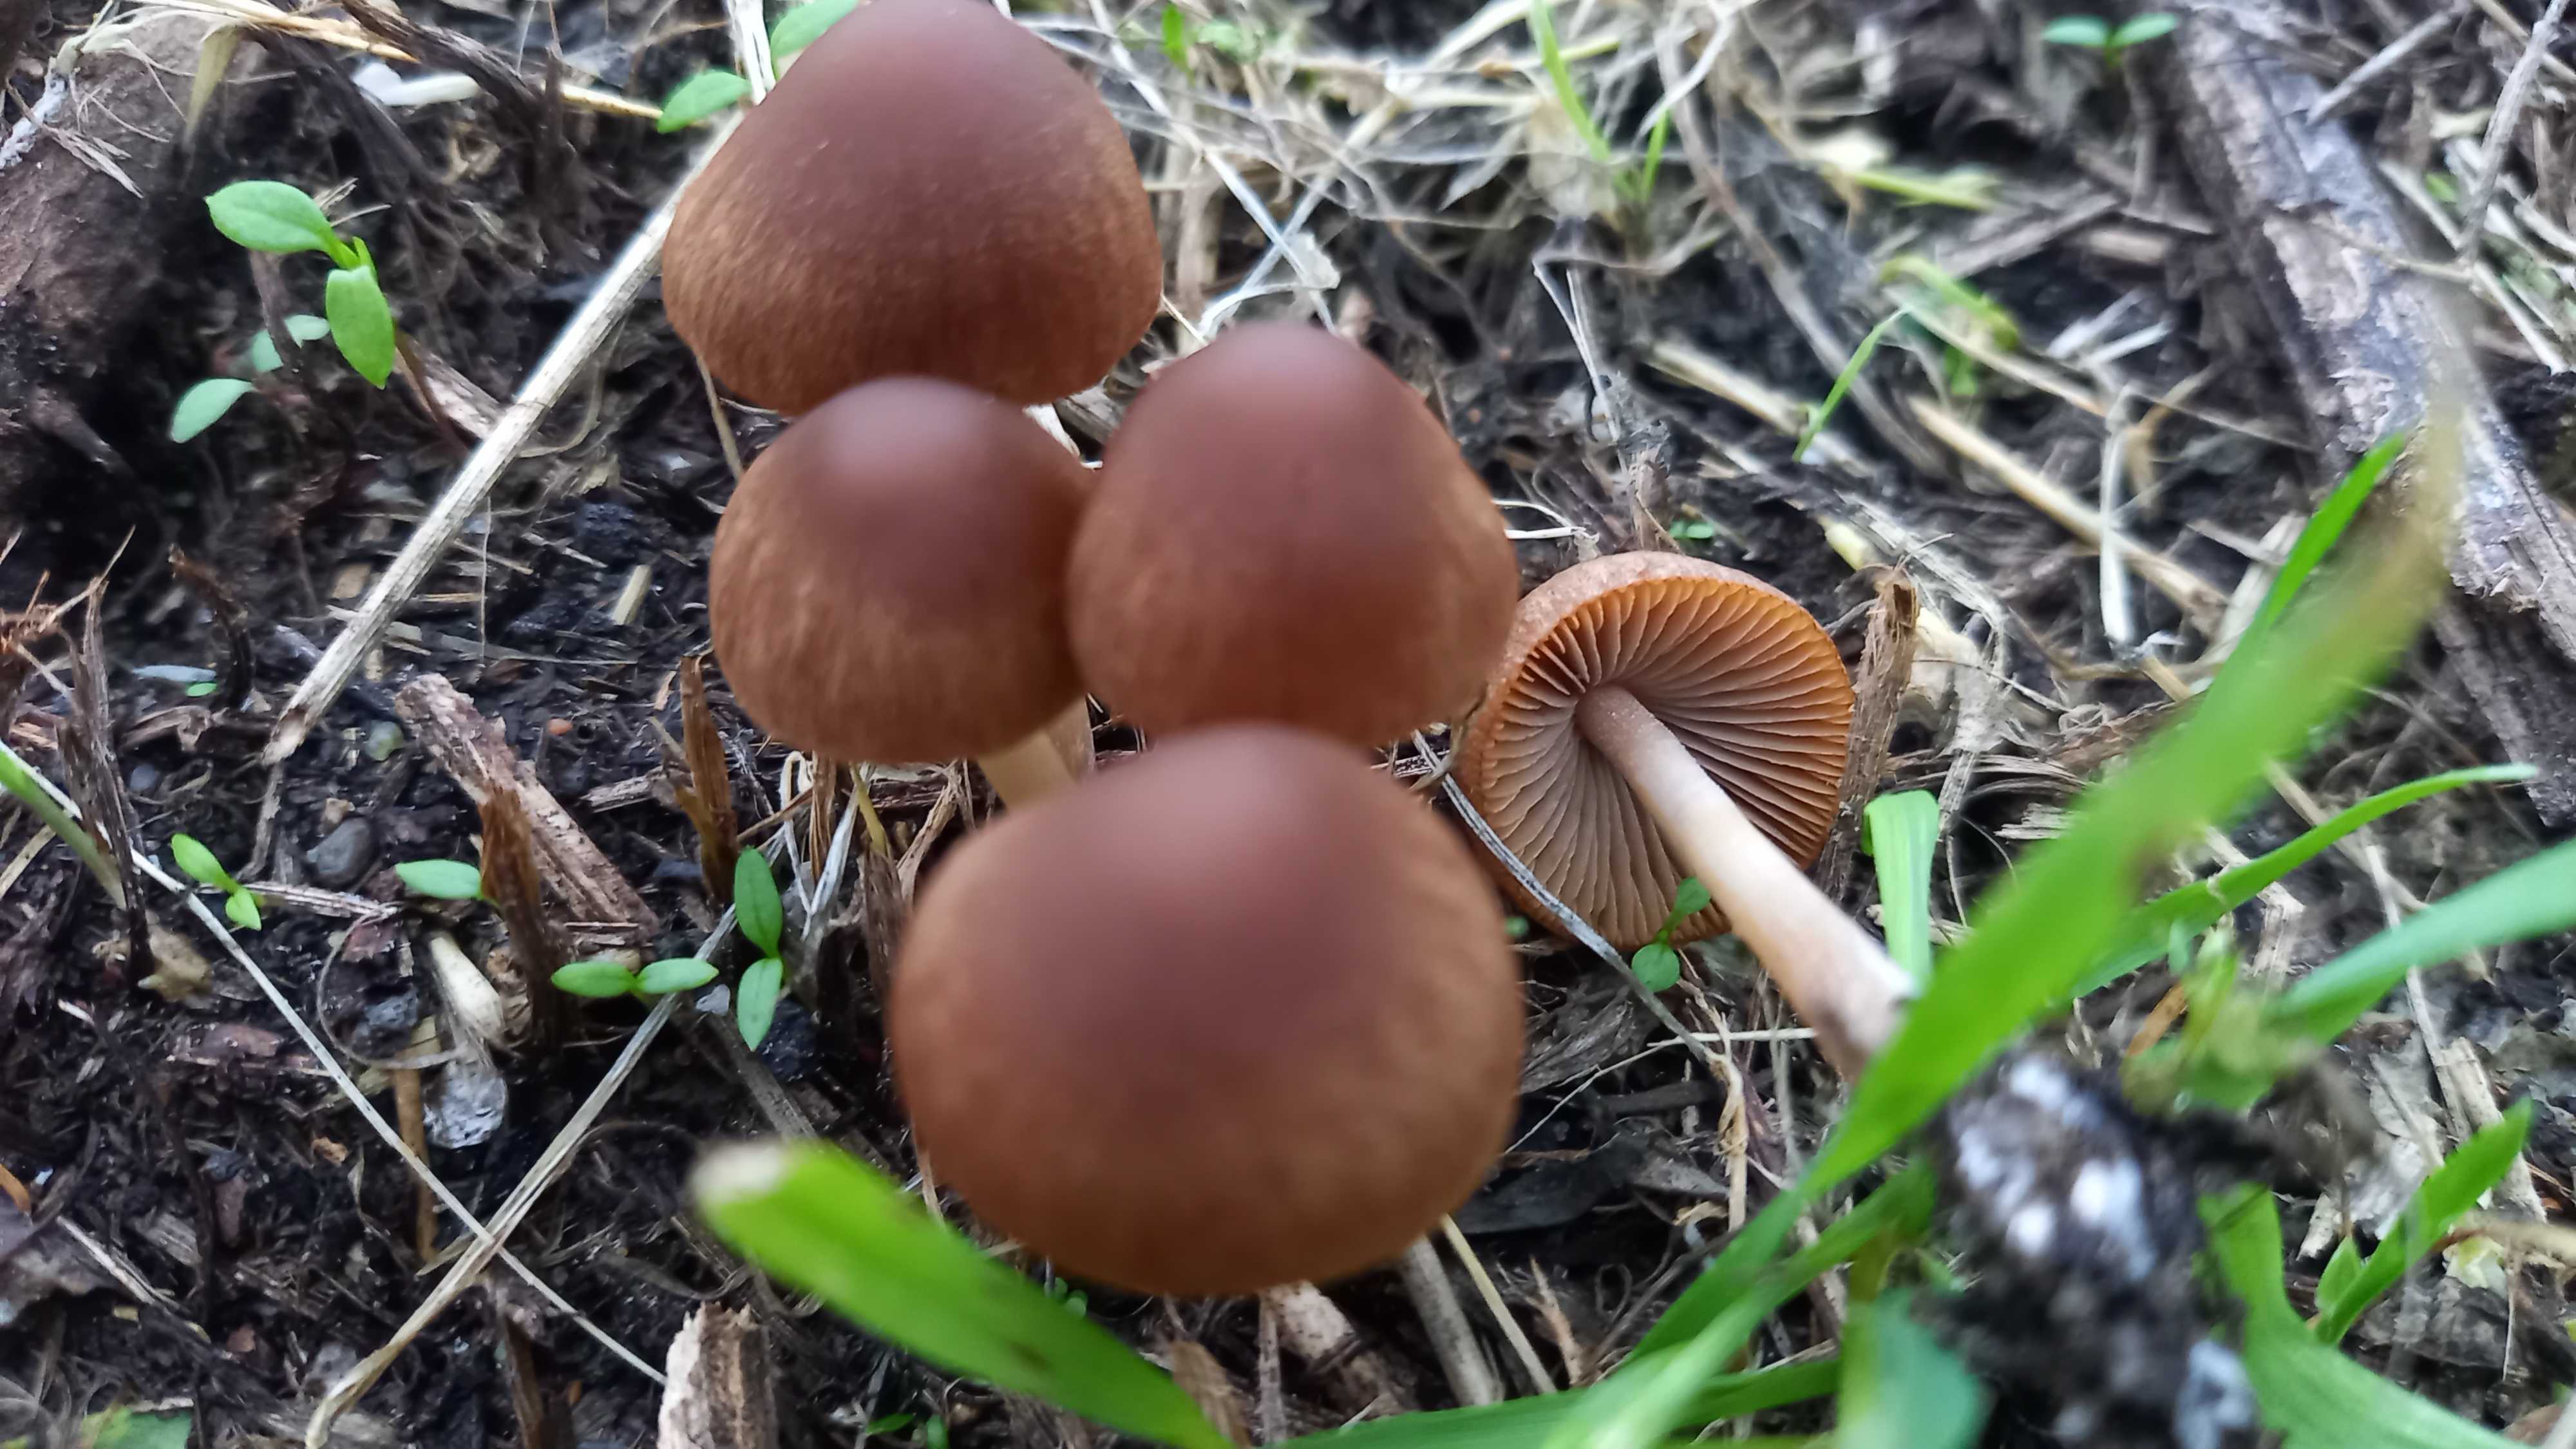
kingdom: Fungi
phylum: Basidiomycota
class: Agaricomycetes
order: Agaricales
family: Psathyrellaceae
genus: Psathyrella
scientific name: Psathyrella
